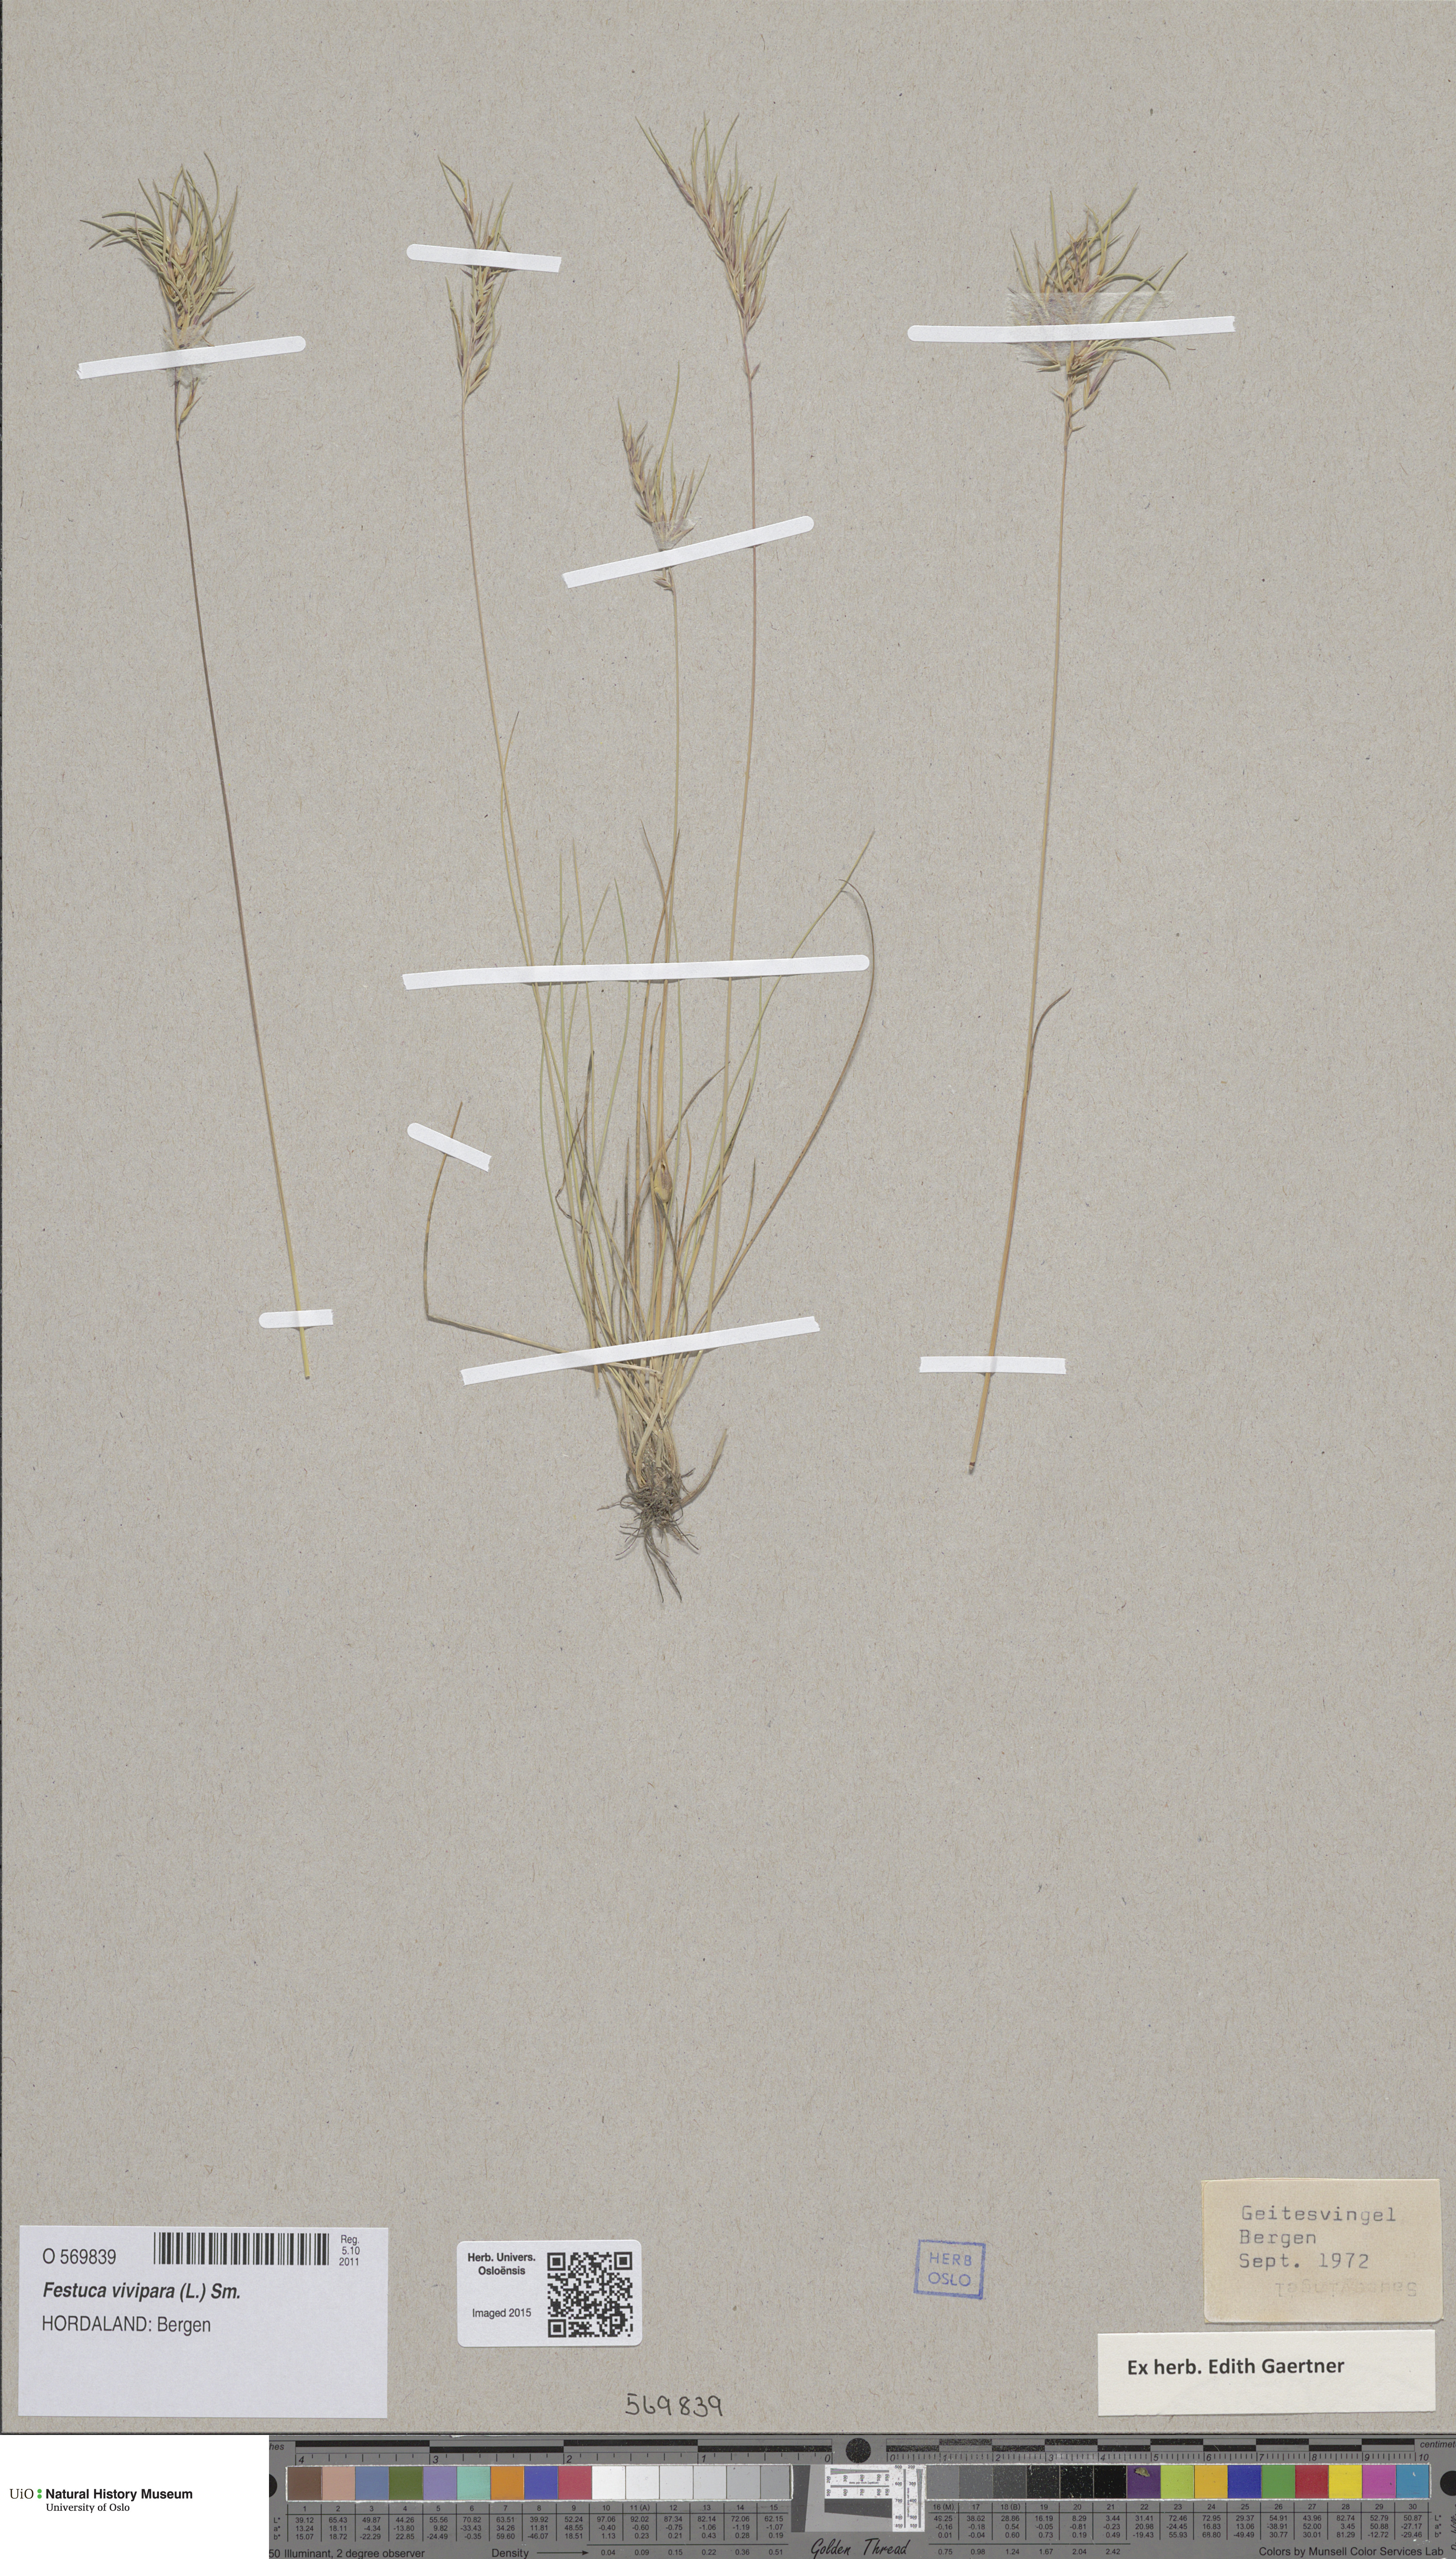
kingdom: Plantae
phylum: Tracheophyta
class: Liliopsida
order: Poales
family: Poaceae
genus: Festuca
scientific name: Festuca vivipara
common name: Viviparous sheep's-fescue
